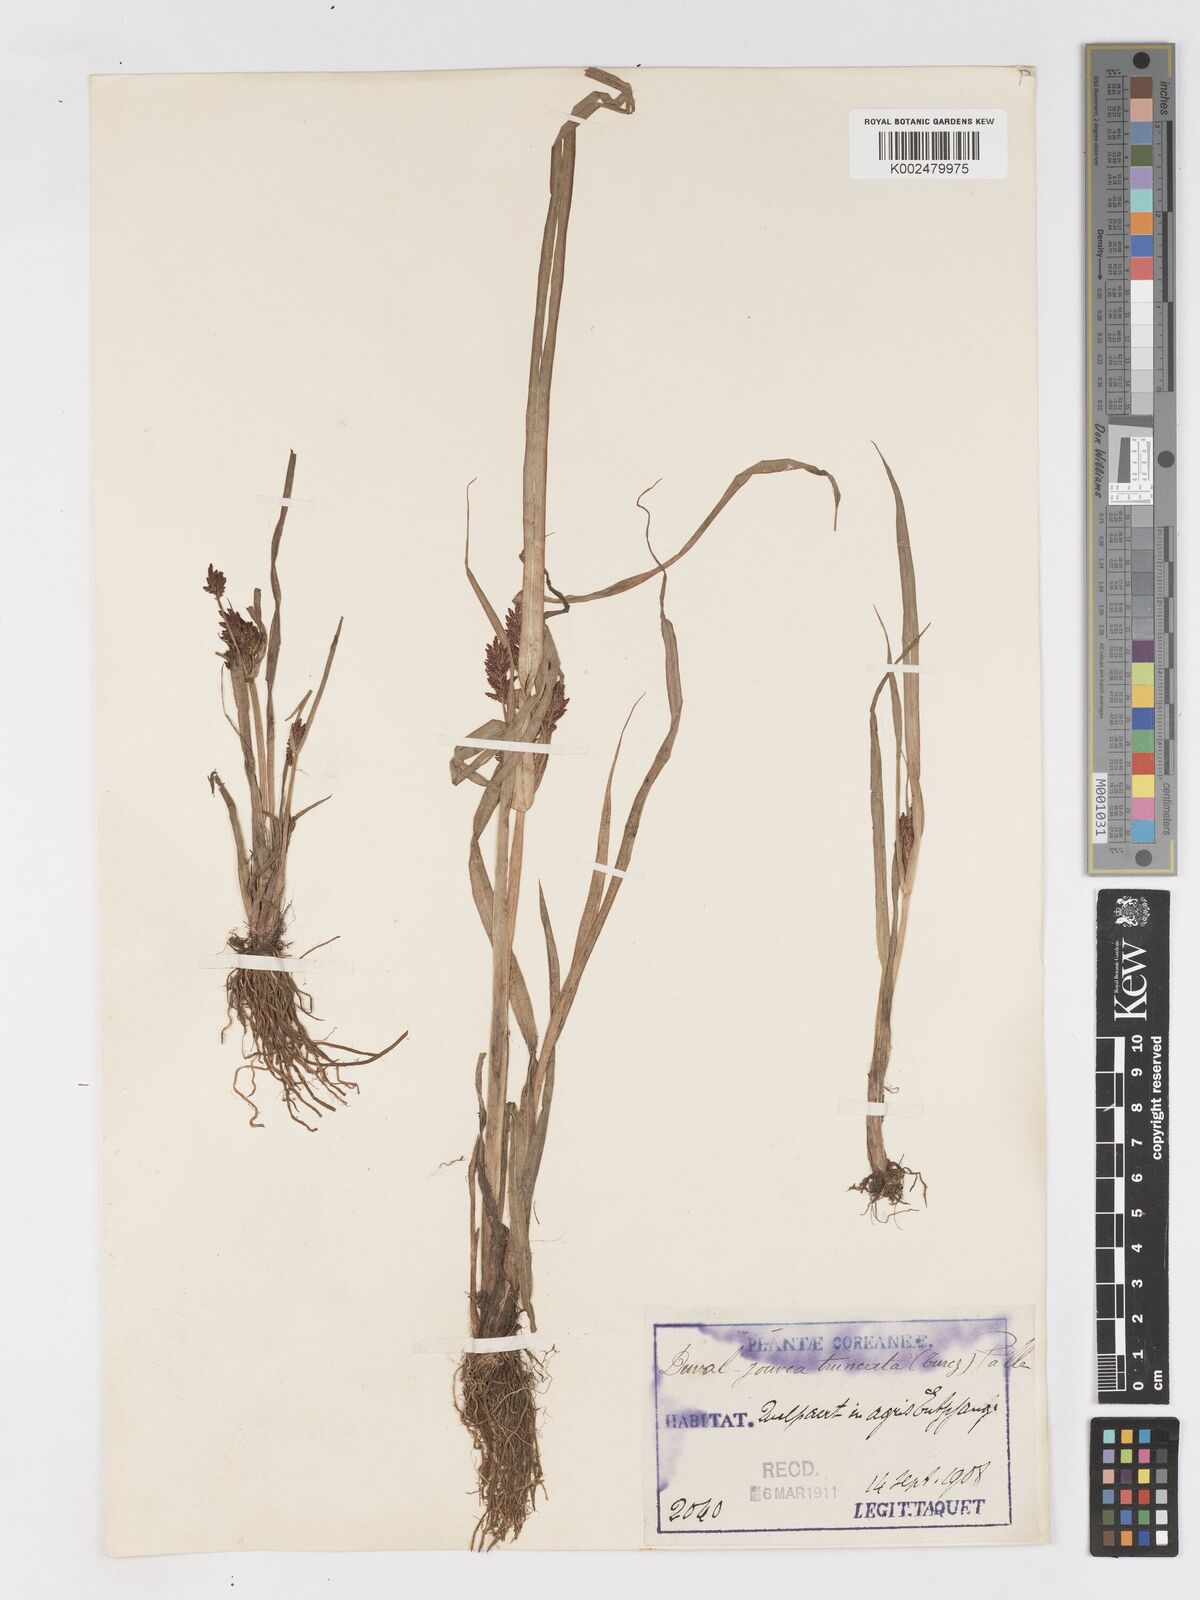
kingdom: Plantae
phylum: Tracheophyta
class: Liliopsida
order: Poales
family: Cyperaceae
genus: Cyperus
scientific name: Cyperus orthostachyus
